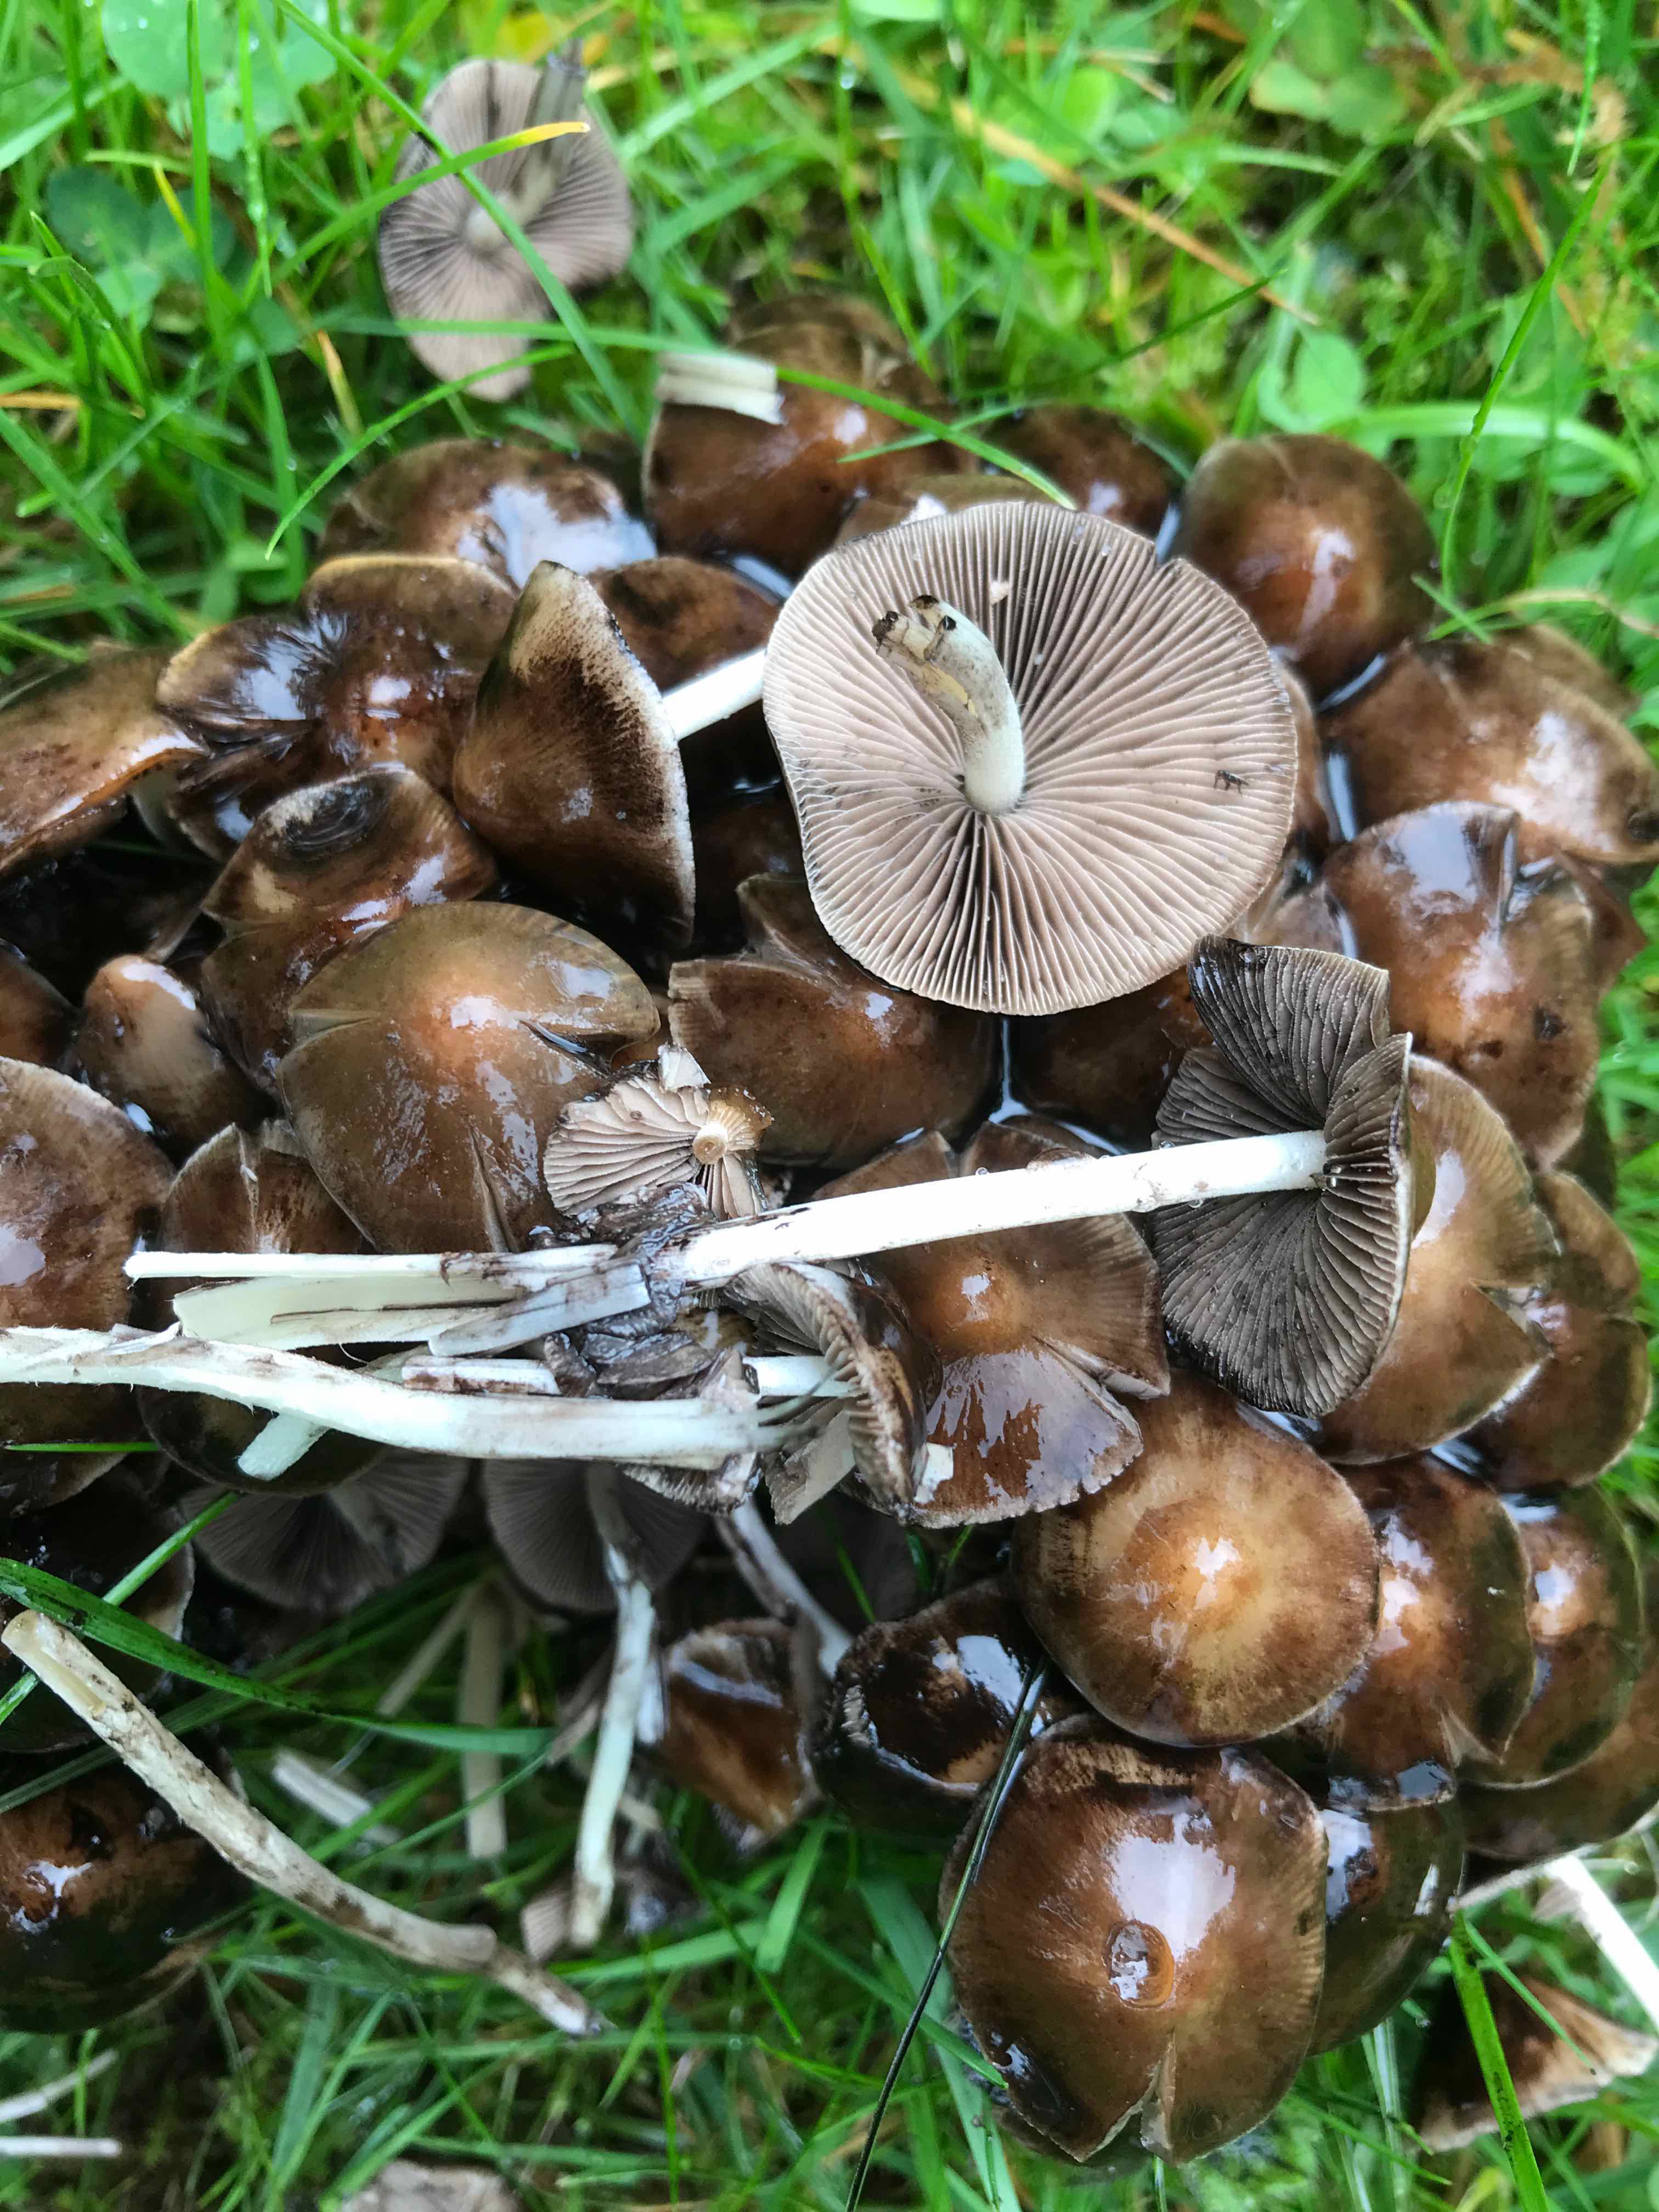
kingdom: Fungi
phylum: Basidiomycota
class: Agaricomycetes
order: Agaricales
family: Psathyrellaceae
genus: Britzelmayria
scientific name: Britzelmayria multipedata
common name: knippe-mørkhat
